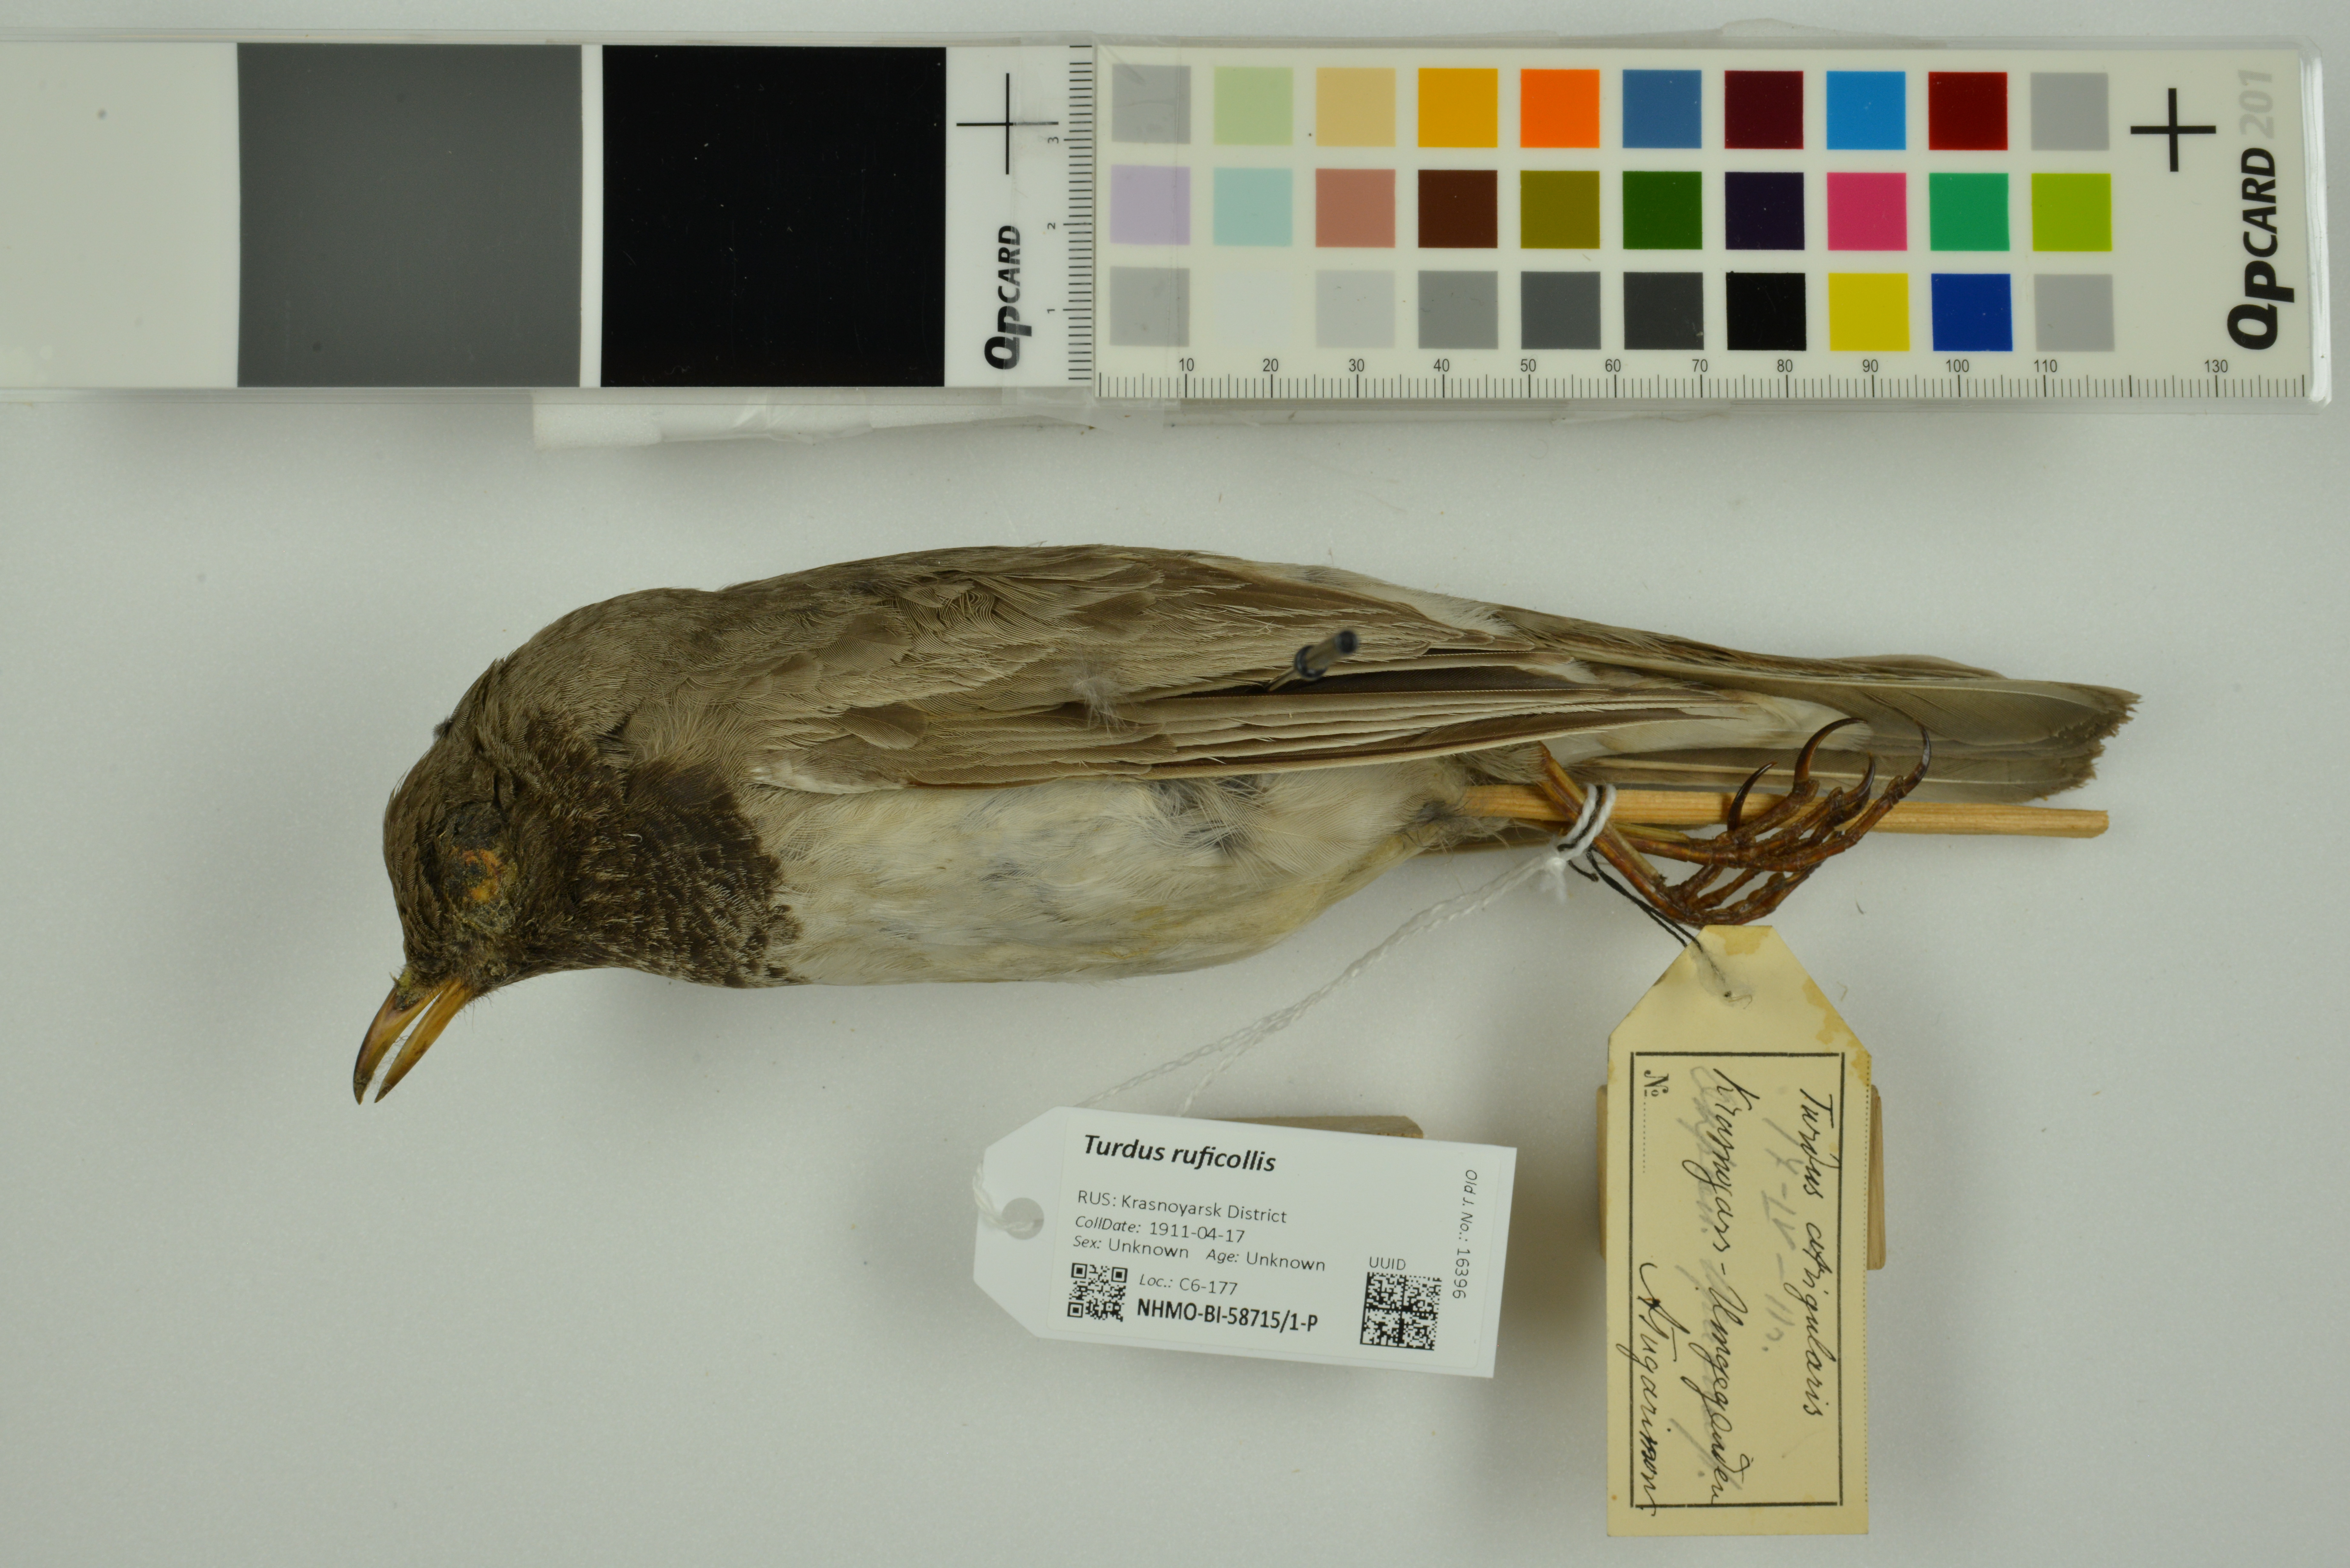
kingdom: Animalia
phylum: Chordata
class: Aves
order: Passeriformes
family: Turdidae
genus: Turdus
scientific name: Turdus ruficollis
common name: Red-throated thrush
